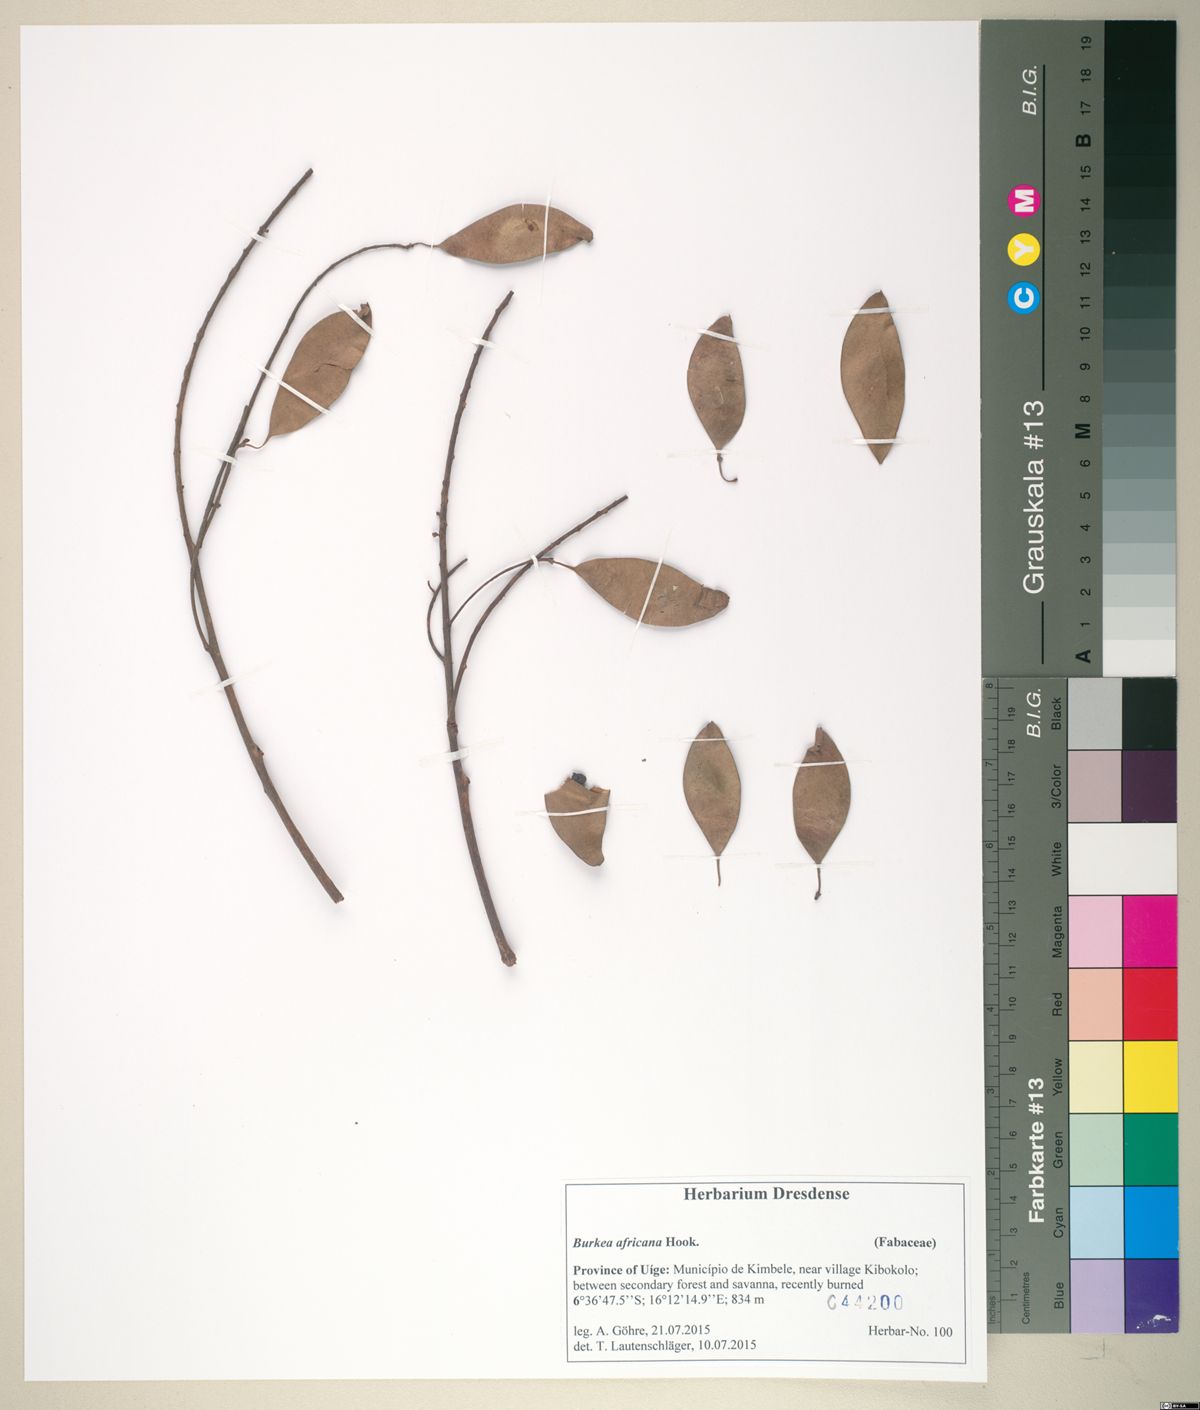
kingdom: Plantae
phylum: Tracheophyta
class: Magnoliopsida
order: Fabales
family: Fabaceae
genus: Burkea
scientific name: Burkea africana
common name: Mkalati tree
